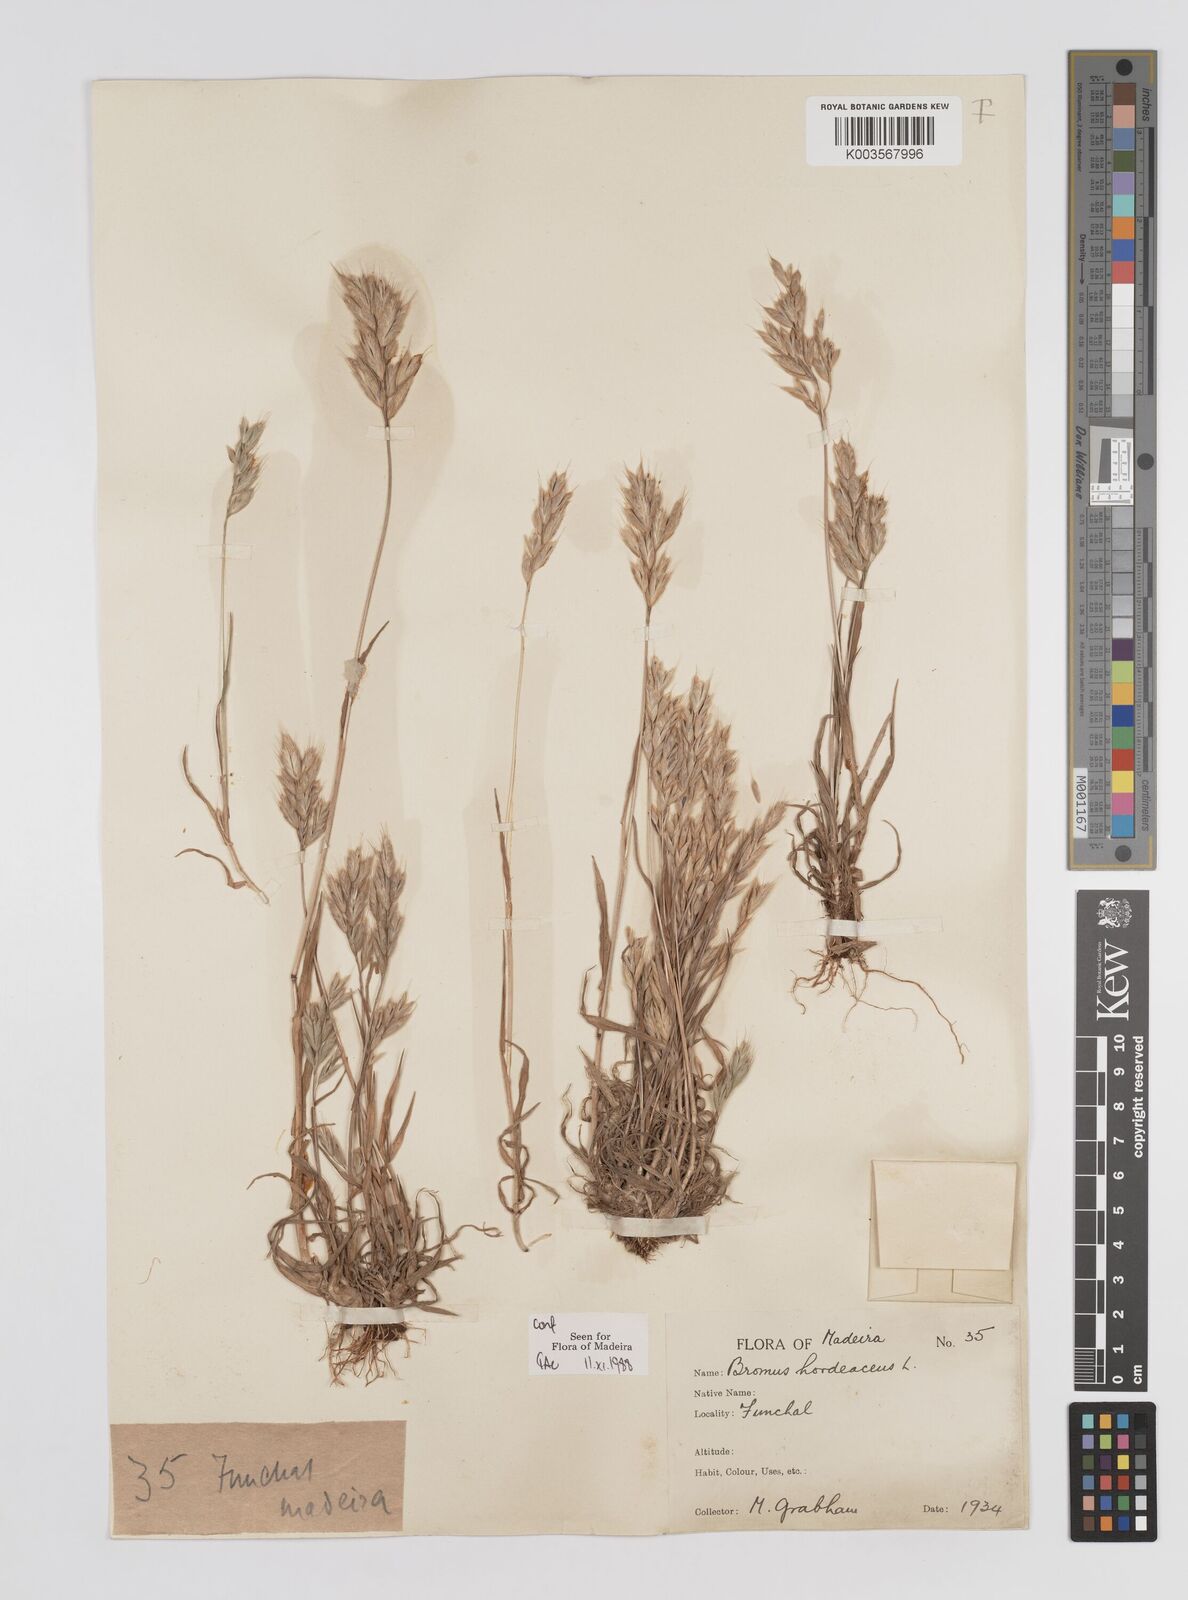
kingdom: Plantae
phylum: Tracheophyta
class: Liliopsida
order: Poales
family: Poaceae
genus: Bromus
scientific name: Bromus
